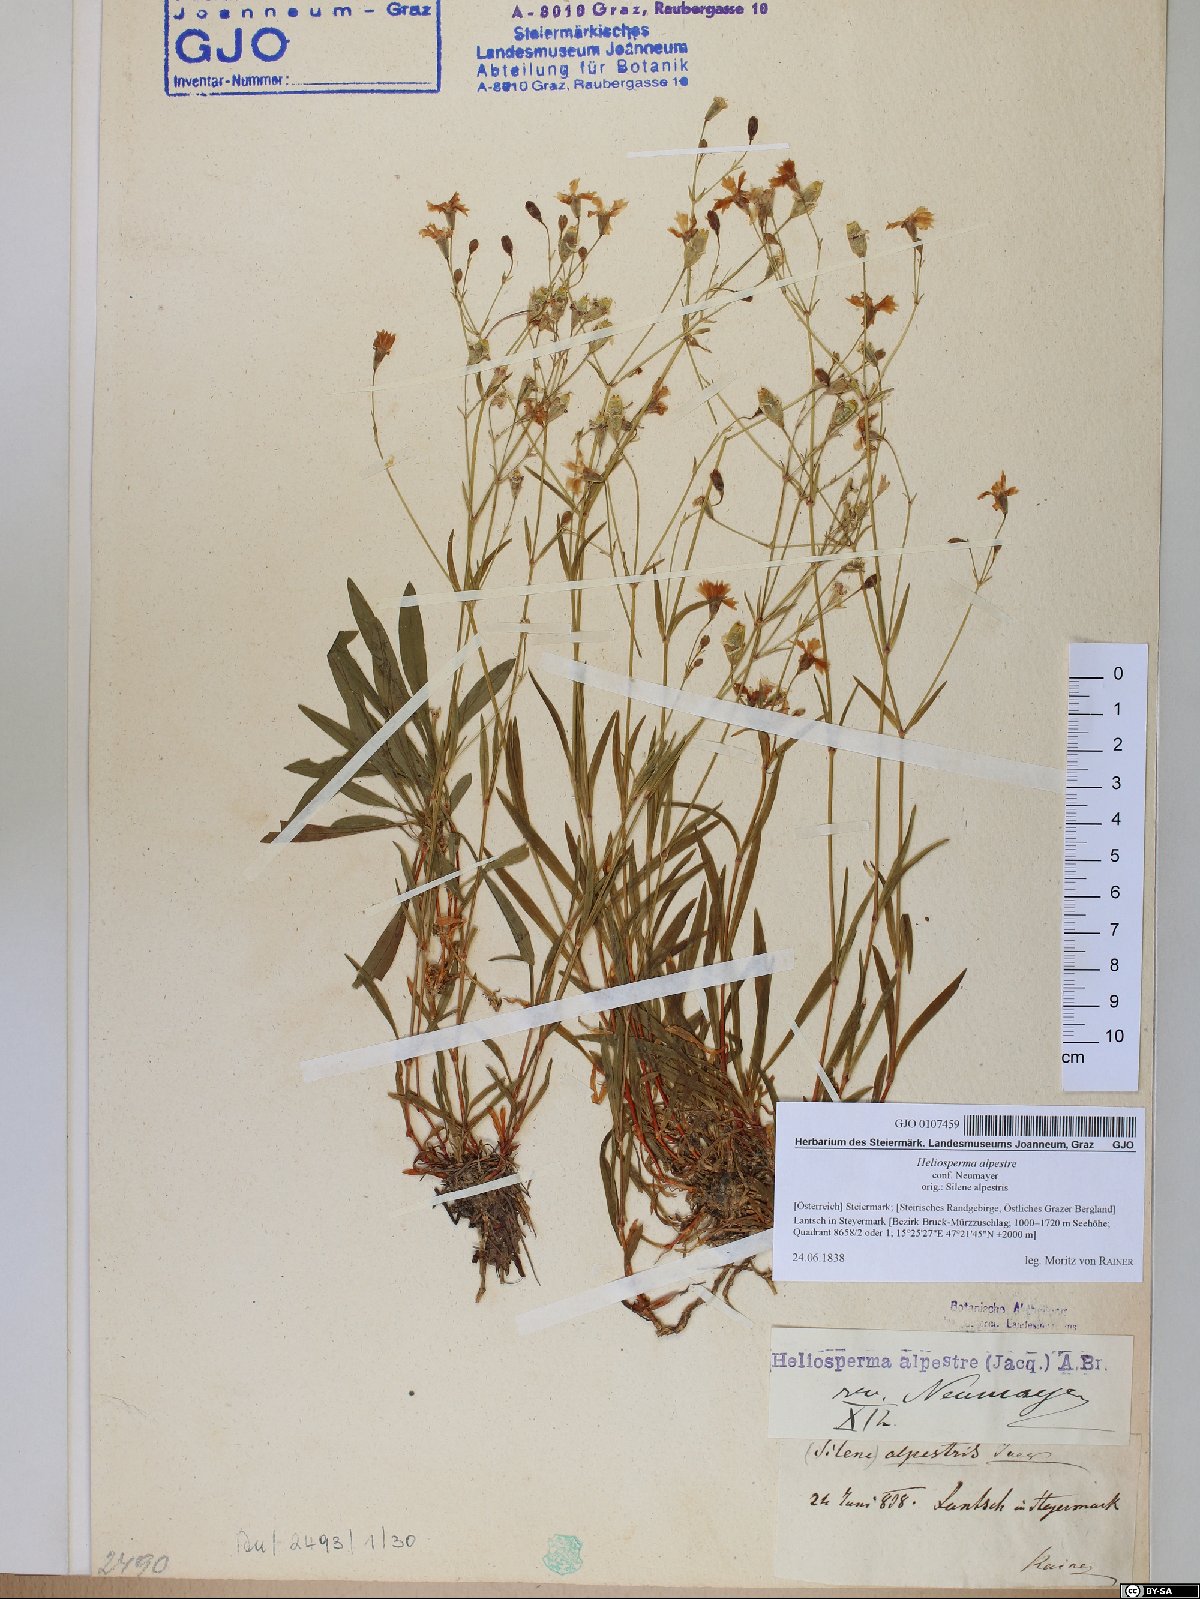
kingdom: Plantae
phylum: Tracheophyta
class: Magnoliopsida
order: Caryophyllales
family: Caryophyllaceae
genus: Heliosperma
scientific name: Heliosperma alpestre
